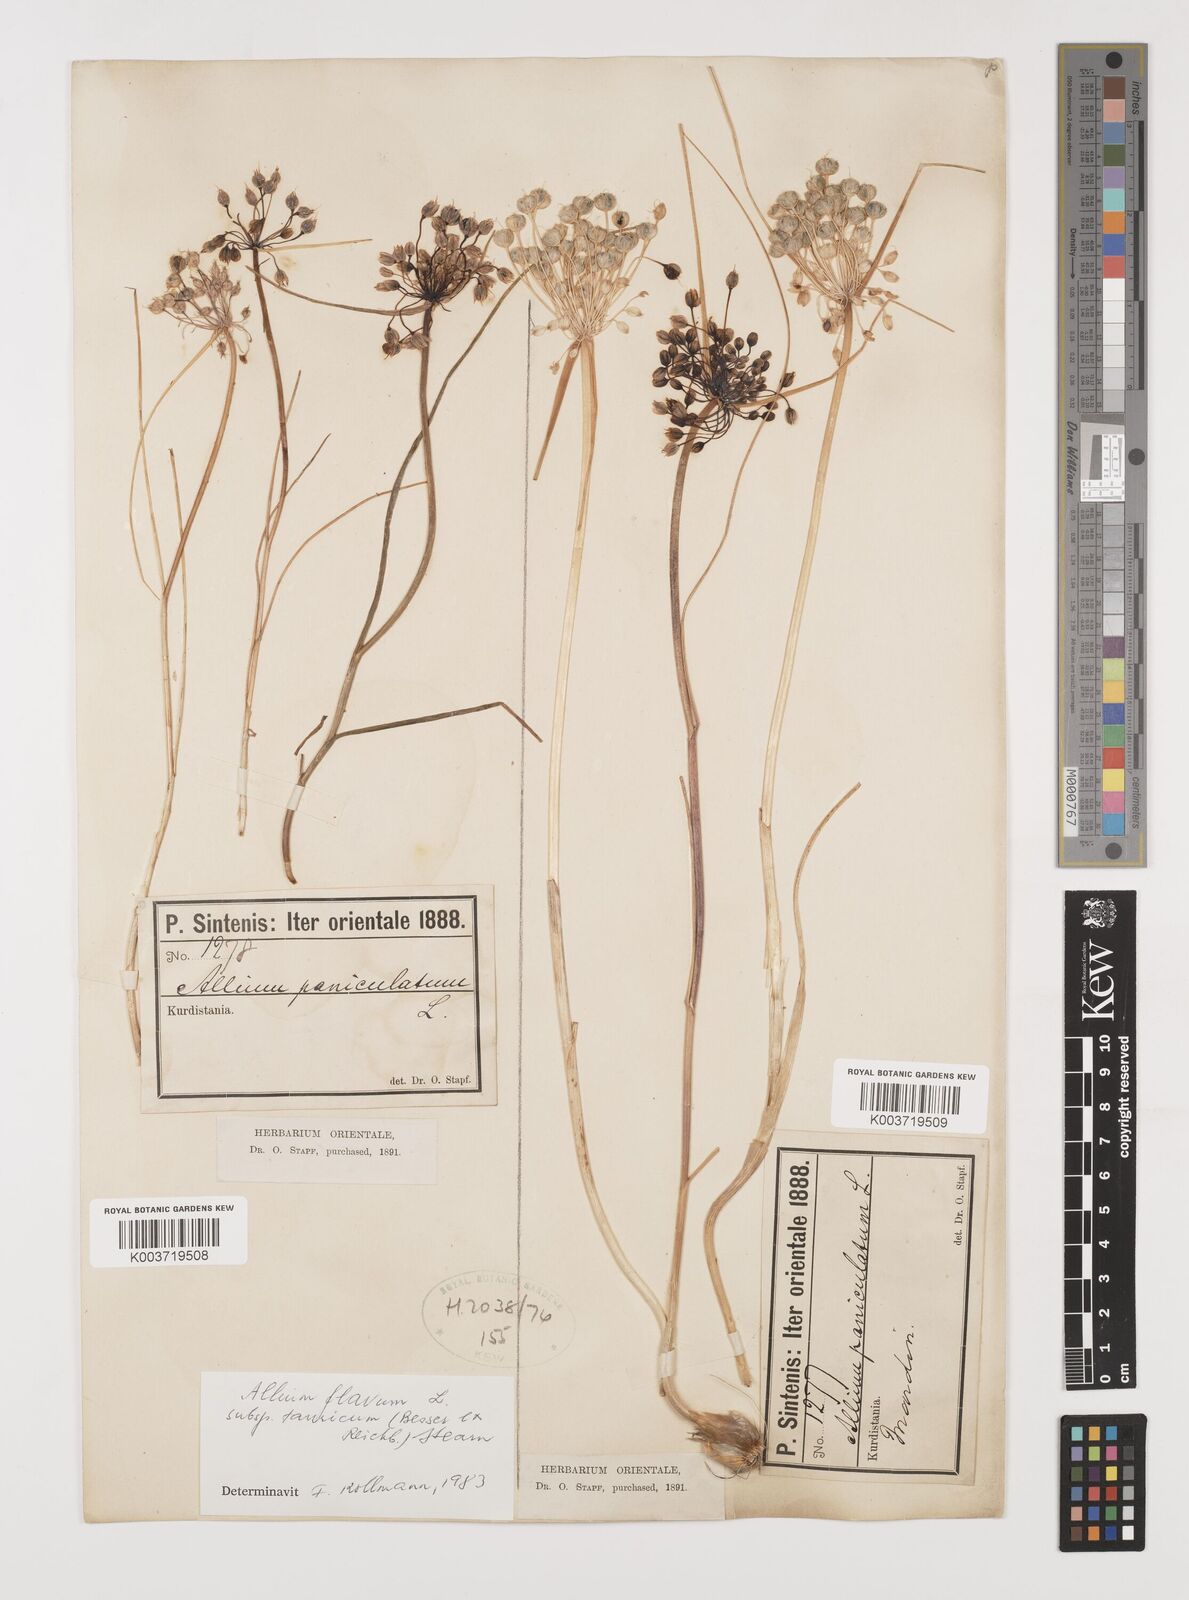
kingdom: Plantae
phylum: Tracheophyta
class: Liliopsida
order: Asparagales
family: Amaryllidaceae
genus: Allium
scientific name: Allium flavum
